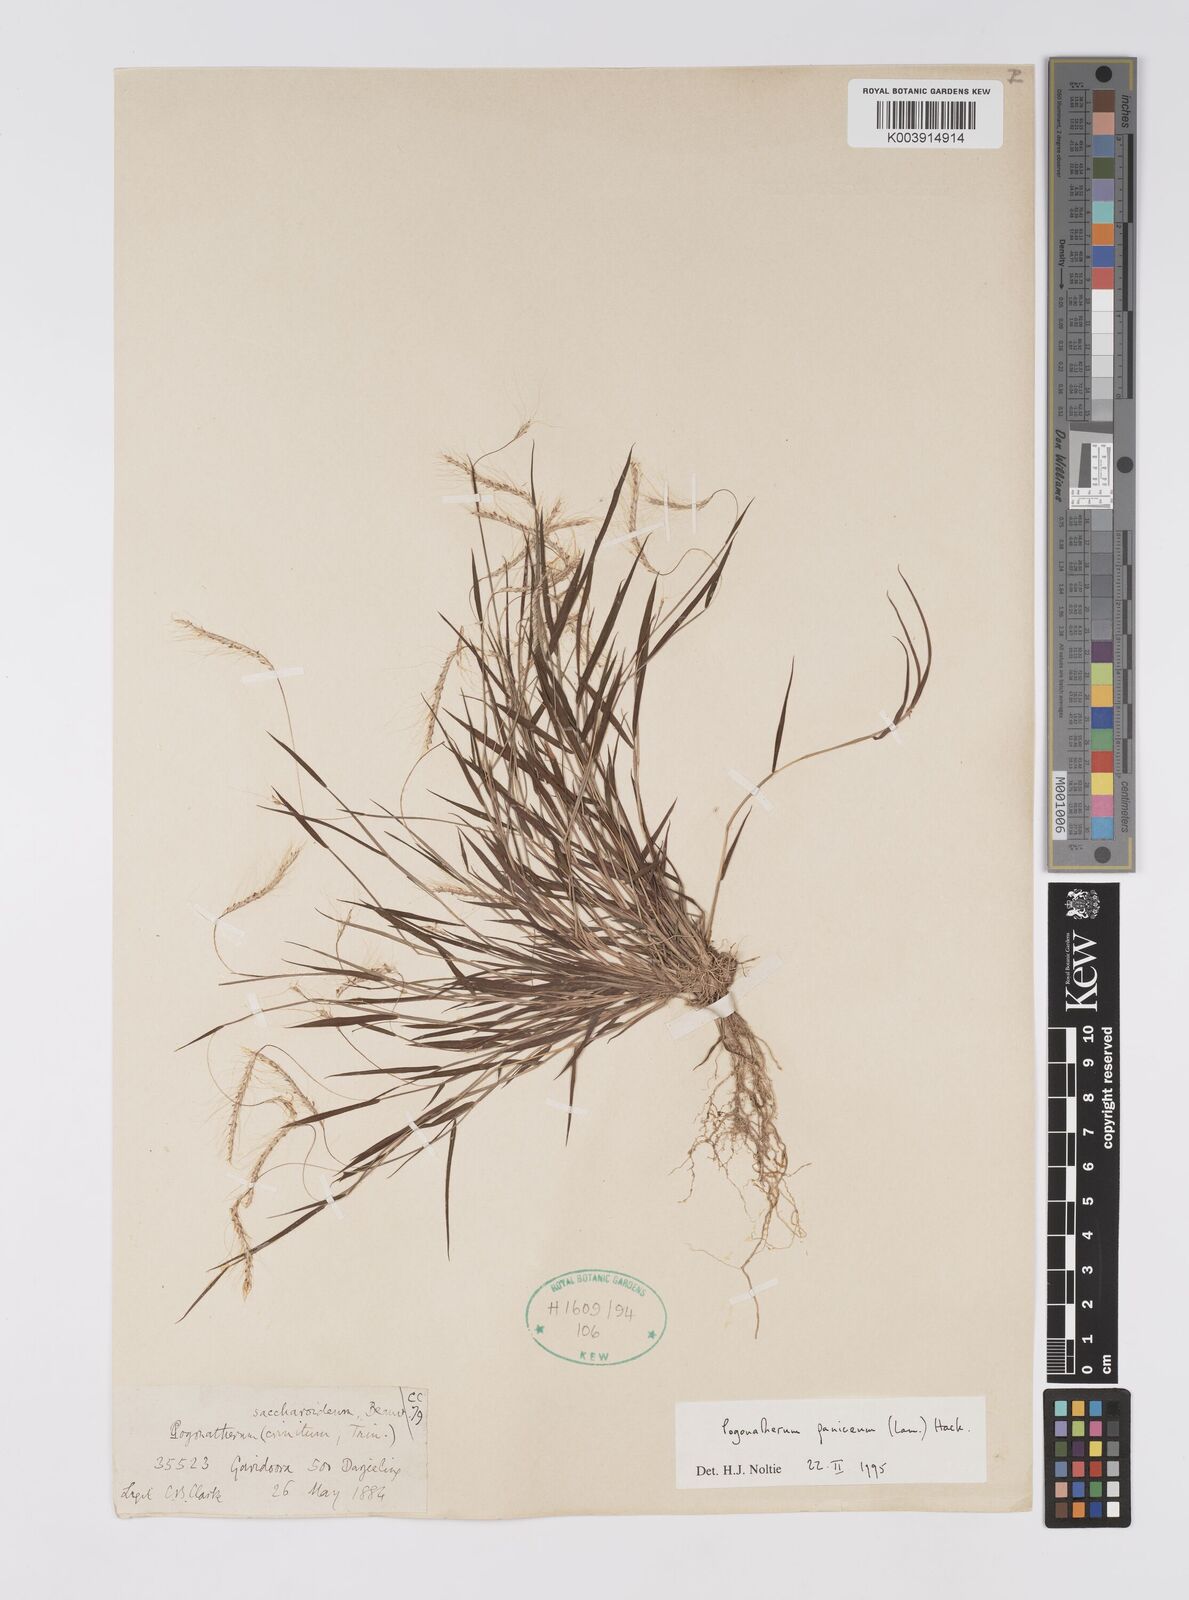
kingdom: Plantae
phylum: Tracheophyta
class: Liliopsida
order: Poales
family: Poaceae
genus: Pogonatherum
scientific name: Pogonatherum paniceum
